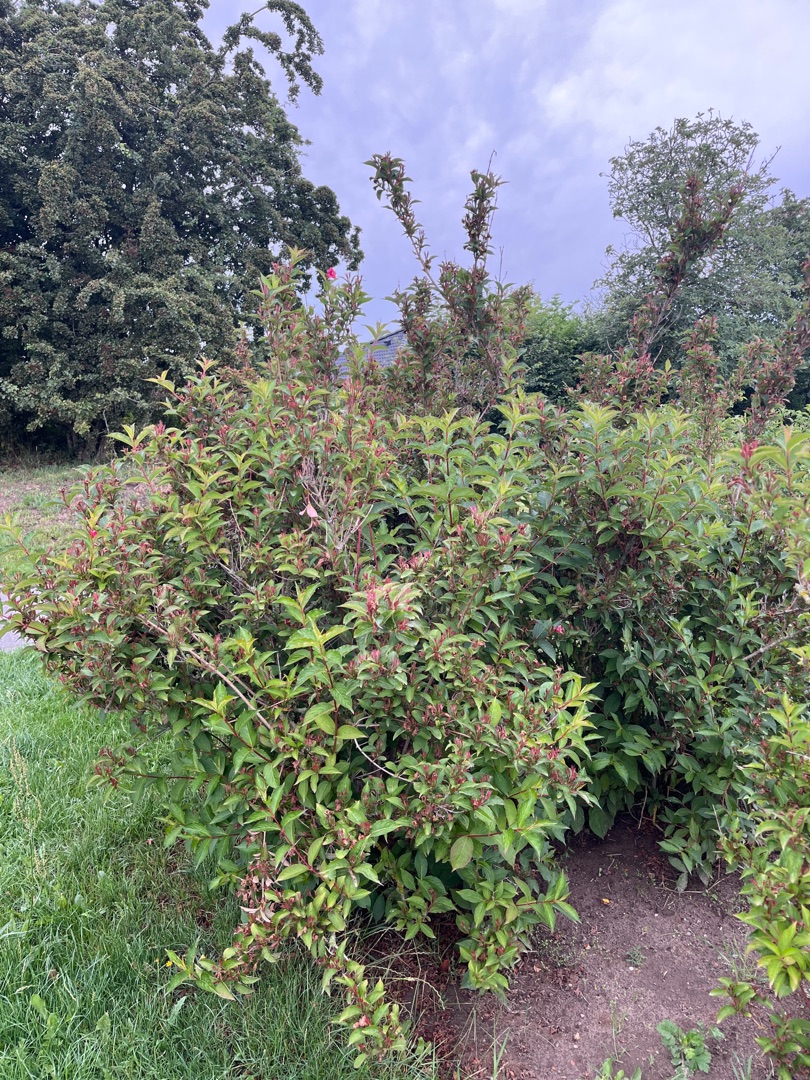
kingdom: Plantae
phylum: Tracheophyta
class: Magnoliopsida
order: Dipsacales
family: Caprifoliaceae
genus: Weigela
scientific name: Weigela florida
